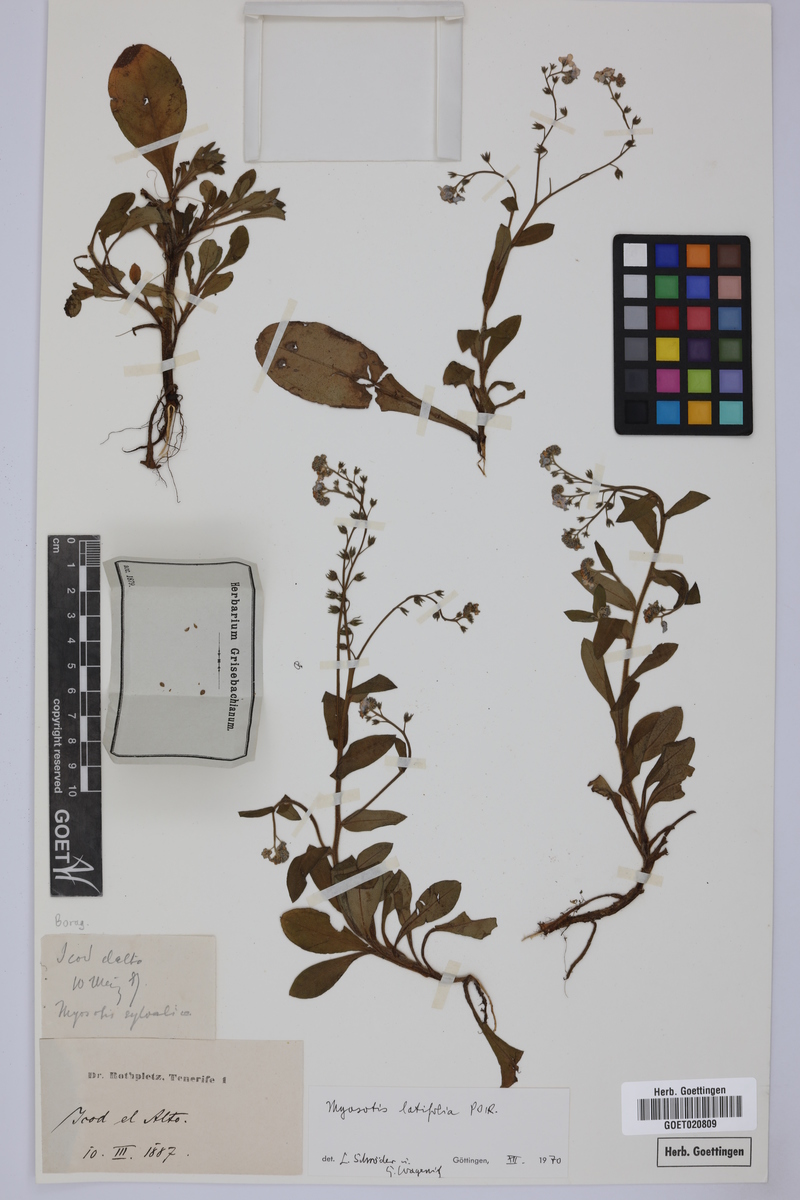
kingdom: Plantae
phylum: Tracheophyta
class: Magnoliopsida
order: Boraginales
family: Boraginaceae
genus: Myosotis
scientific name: Myosotis latifolia
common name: Broadleaf forget-me-not
